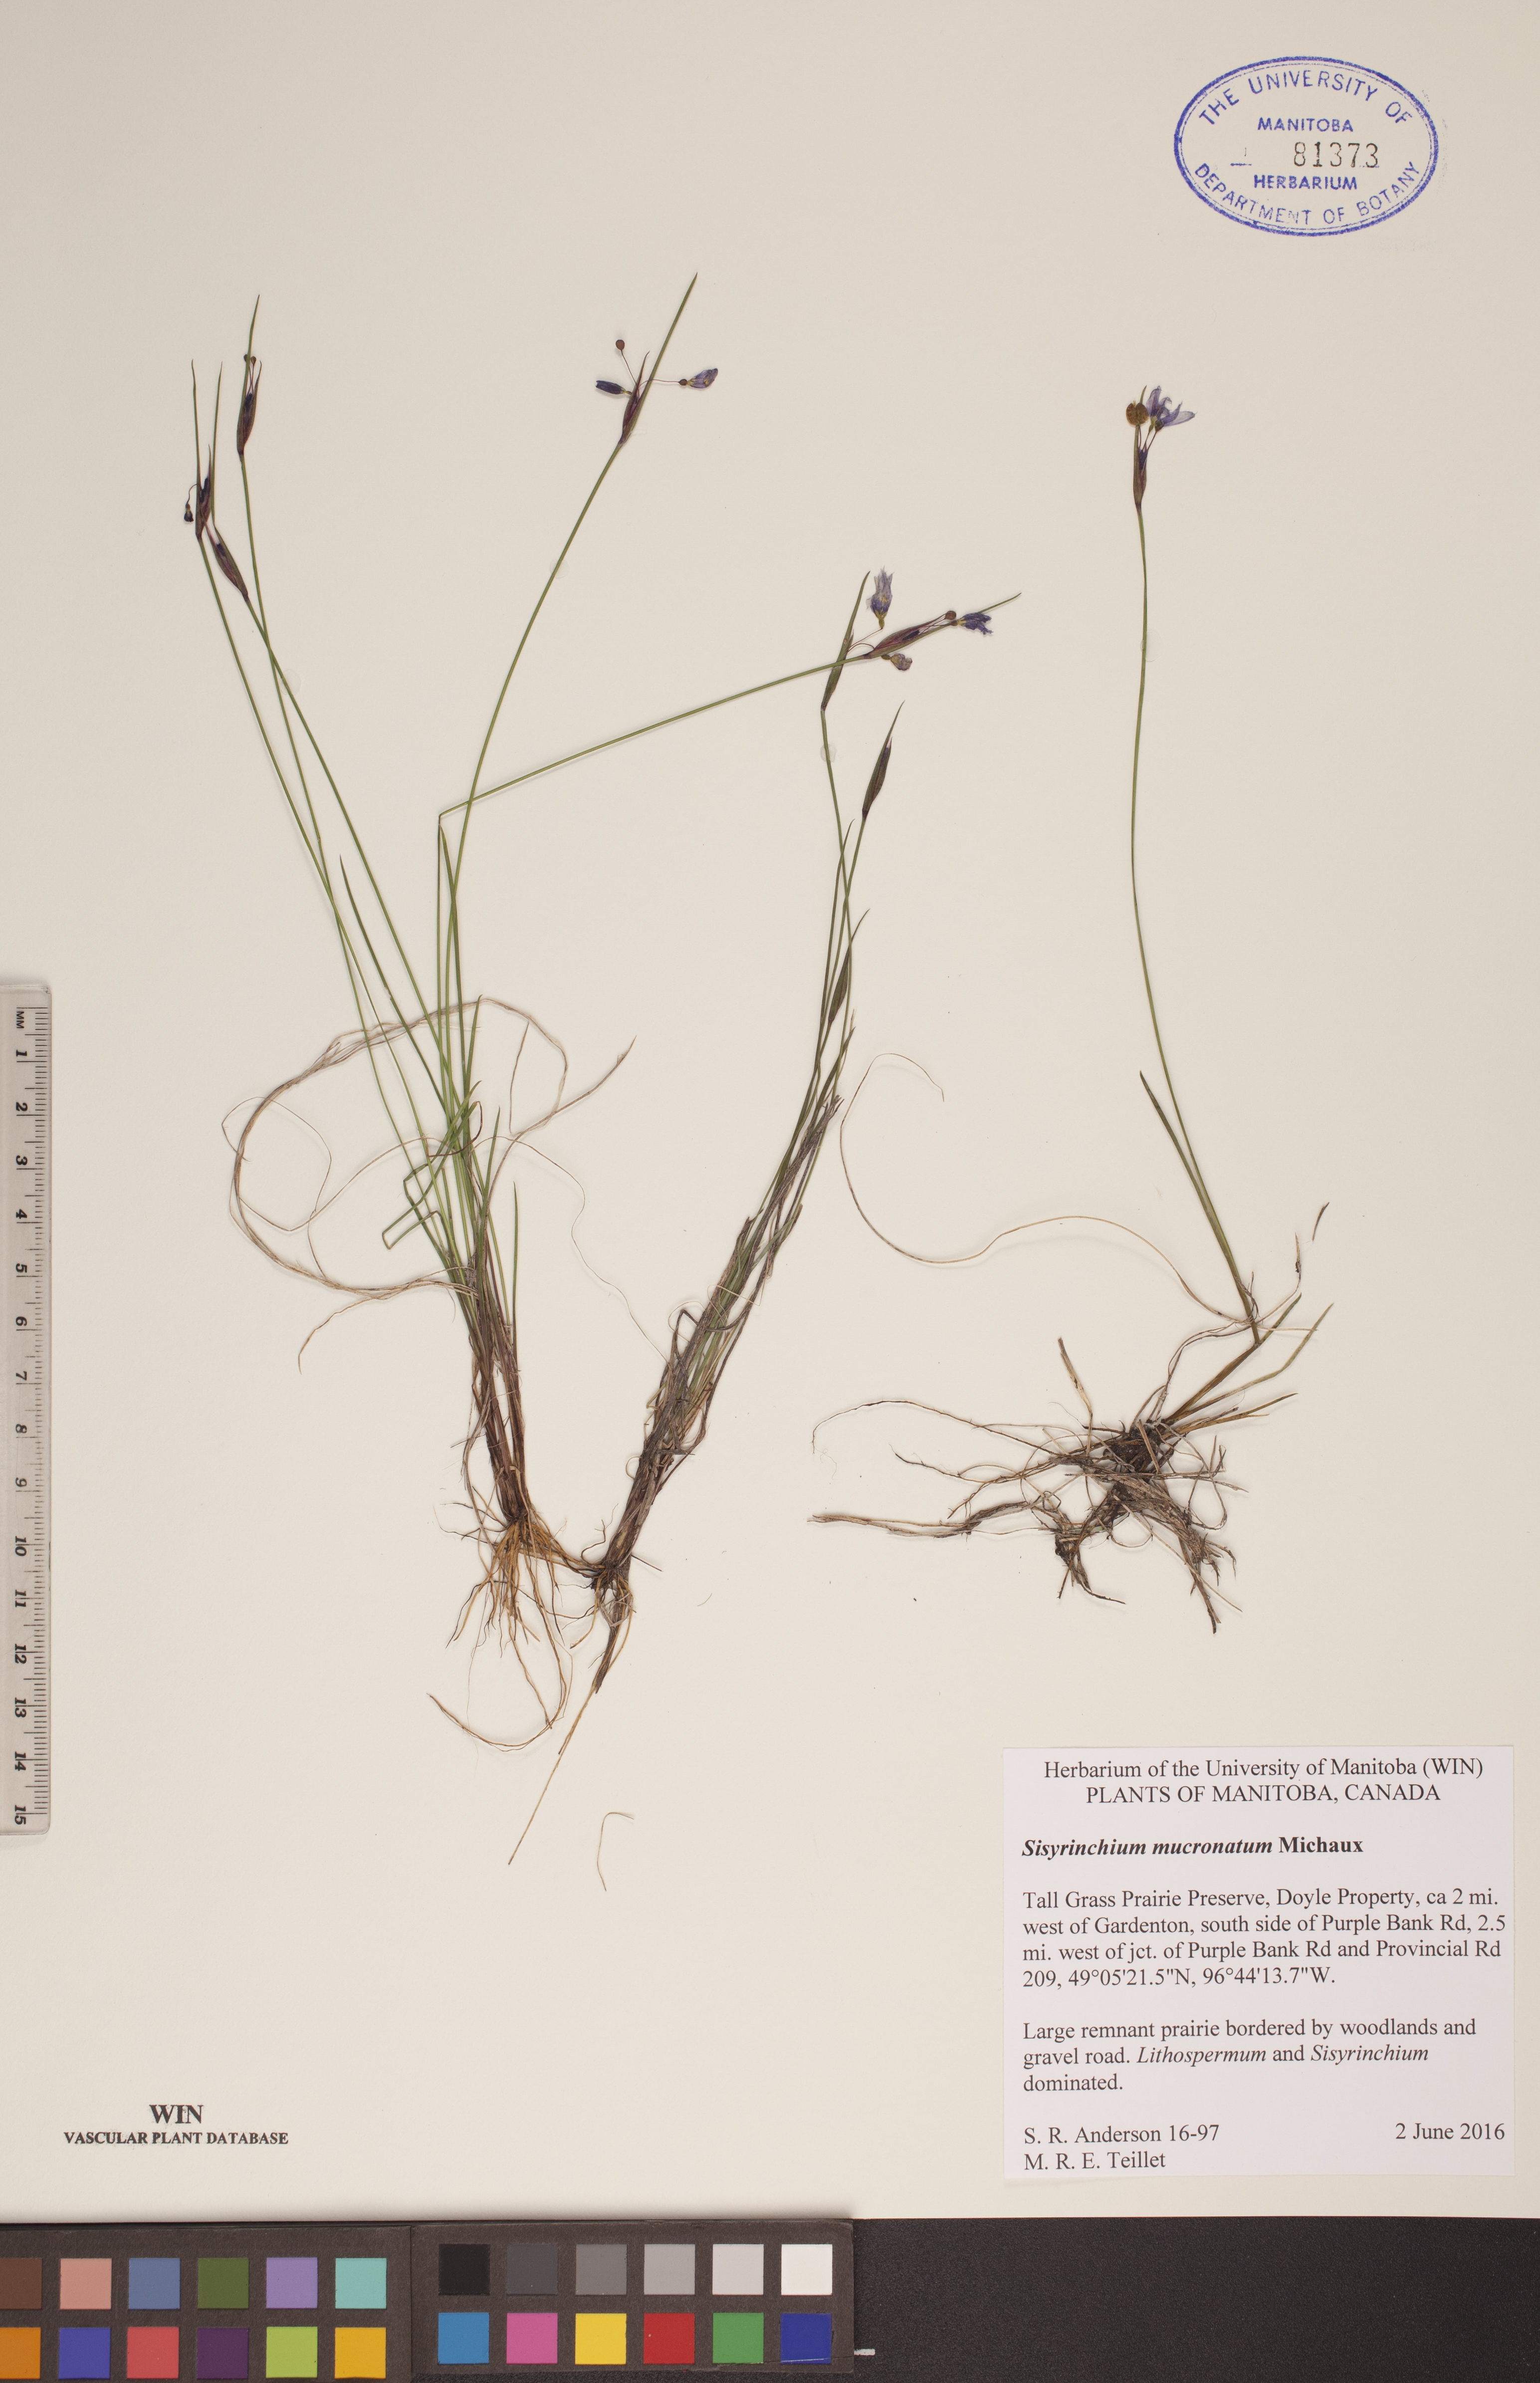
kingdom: Plantae
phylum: Tracheophyta
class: Liliopsida
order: Asparagales
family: Iridaceae
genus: Sisyrinchium
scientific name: Sisyrinchium mucronatum
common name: Eastern blue-eyed-grass
